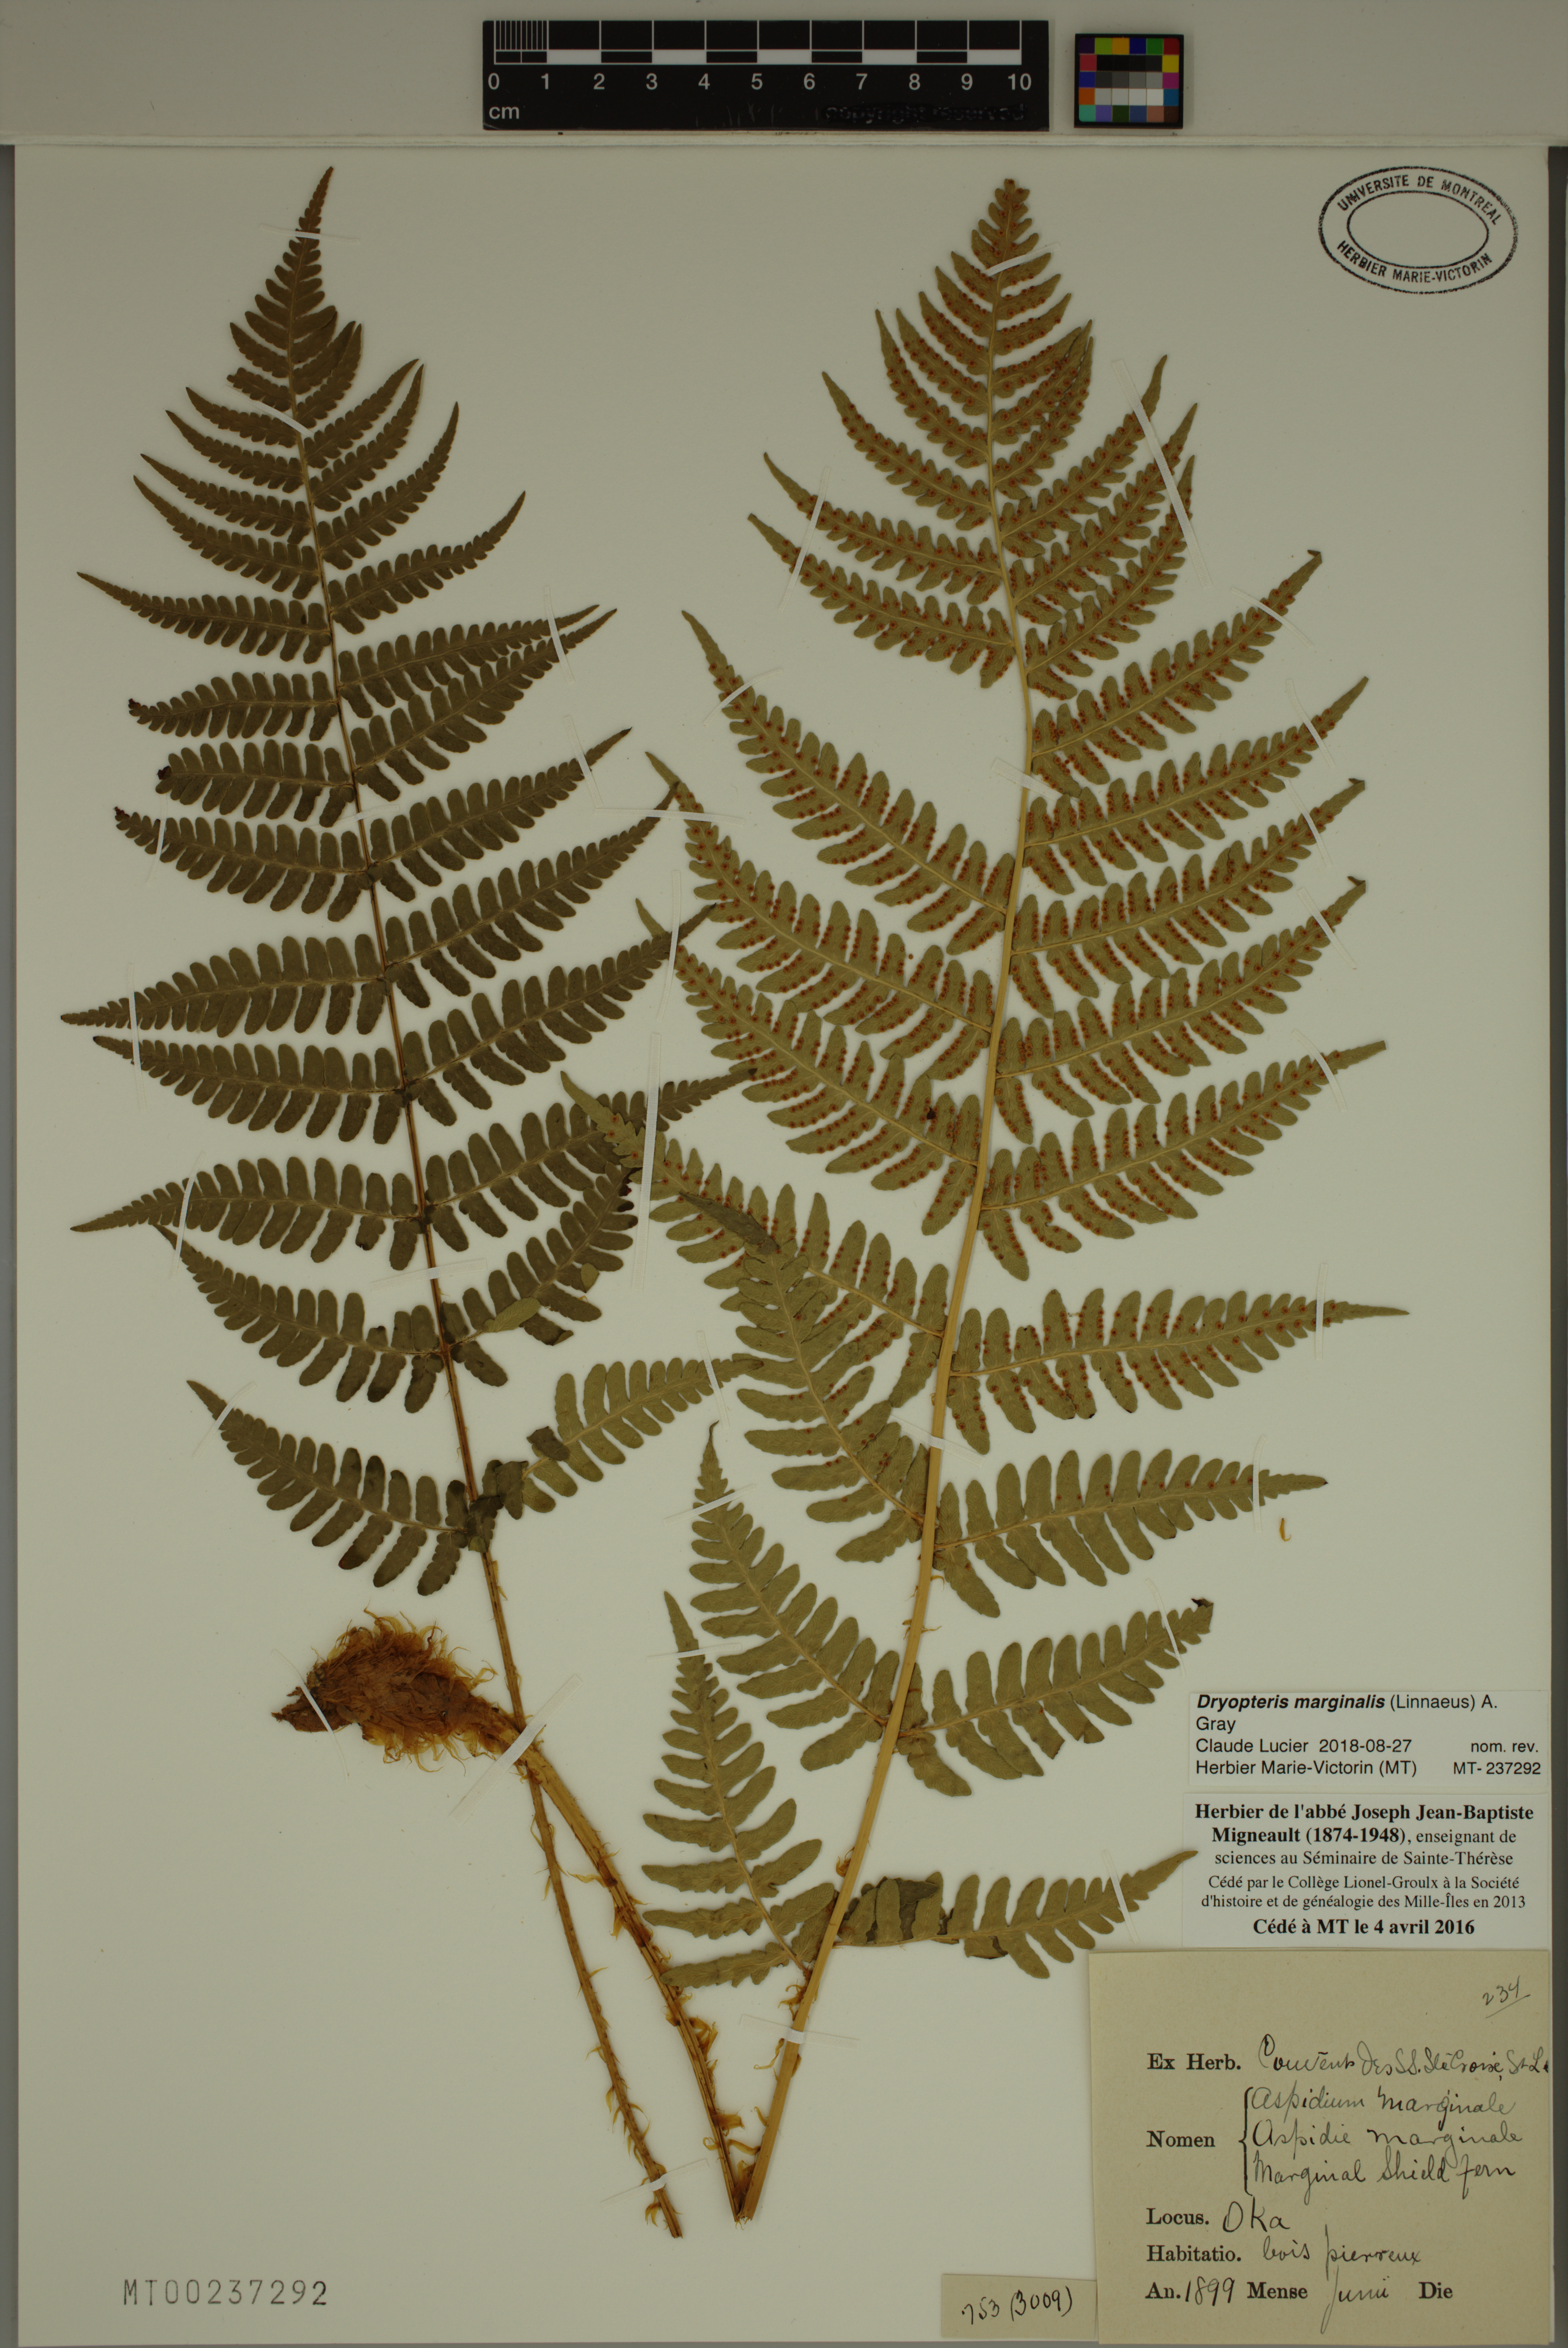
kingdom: Plantae
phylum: Tracheophyta
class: Polypodiopsida
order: Polypodiales
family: Dryopteridaceae
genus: Dryopteris
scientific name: Dryopteris marginalis
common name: Marginal wood fern
